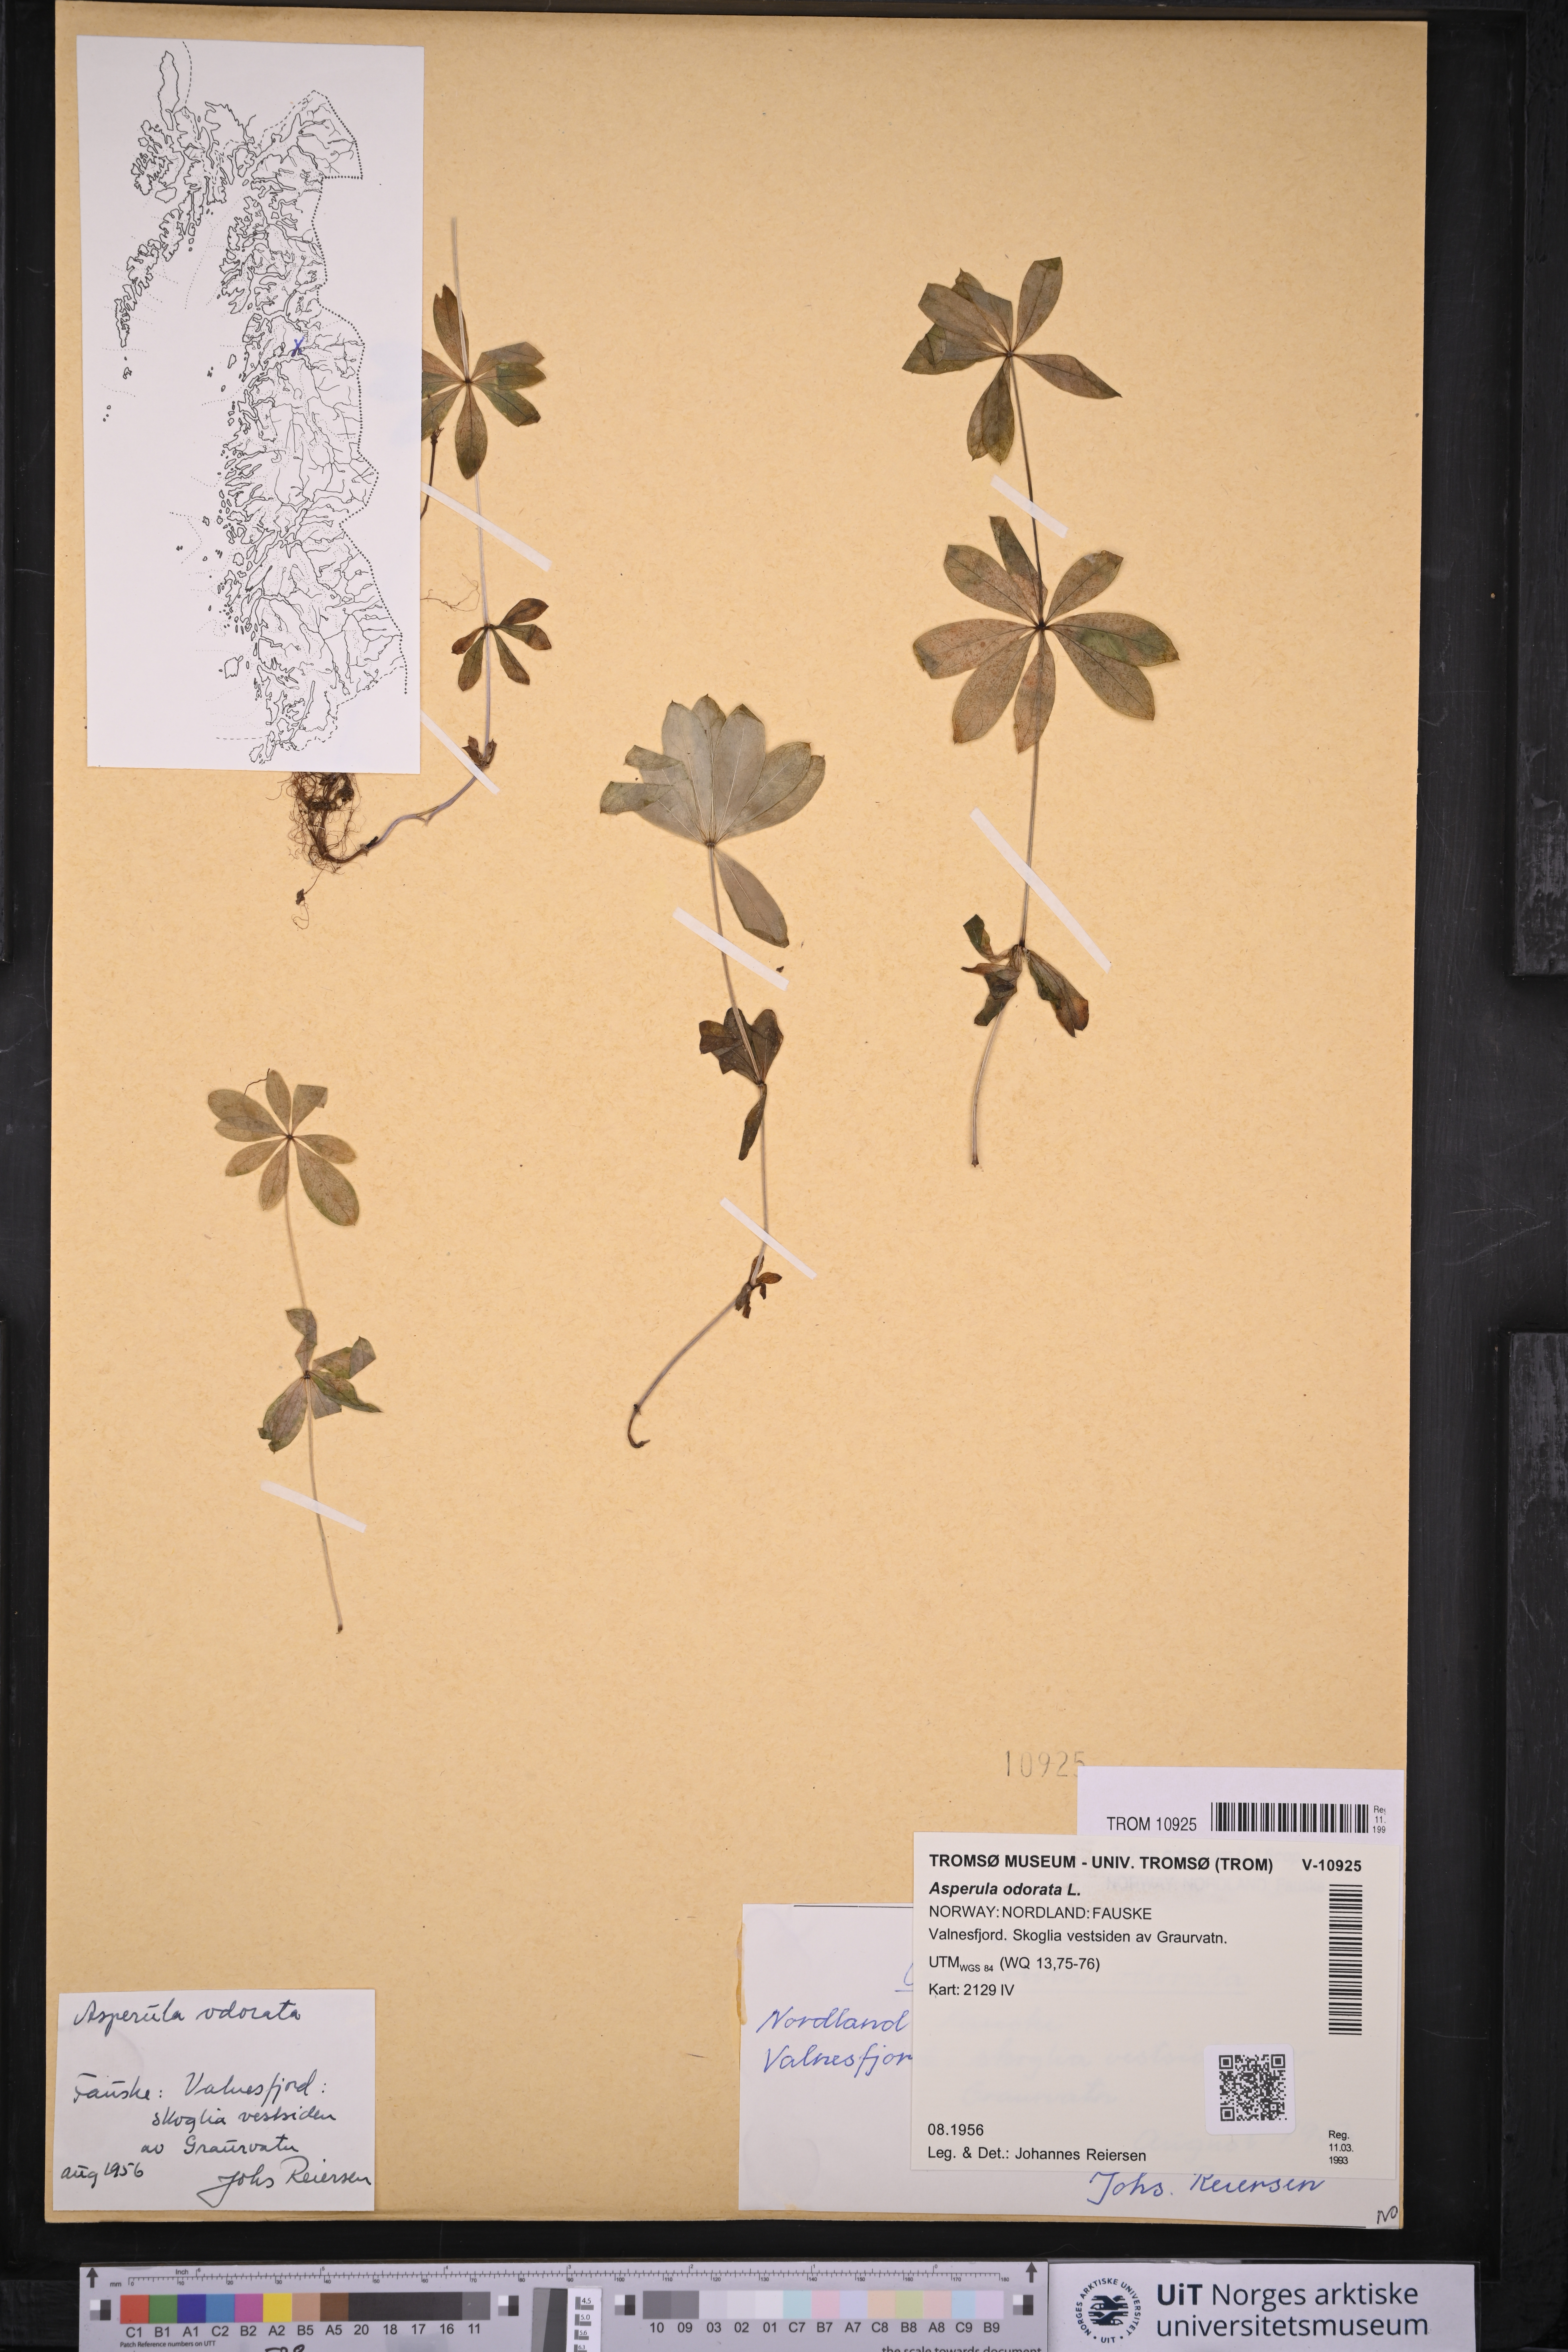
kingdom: Plantae
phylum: Tracheophyta
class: Magnoliopsida
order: Gentianales
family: Rubiaceae
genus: Galium
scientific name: Galium odoratum
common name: Sweet woodruff
